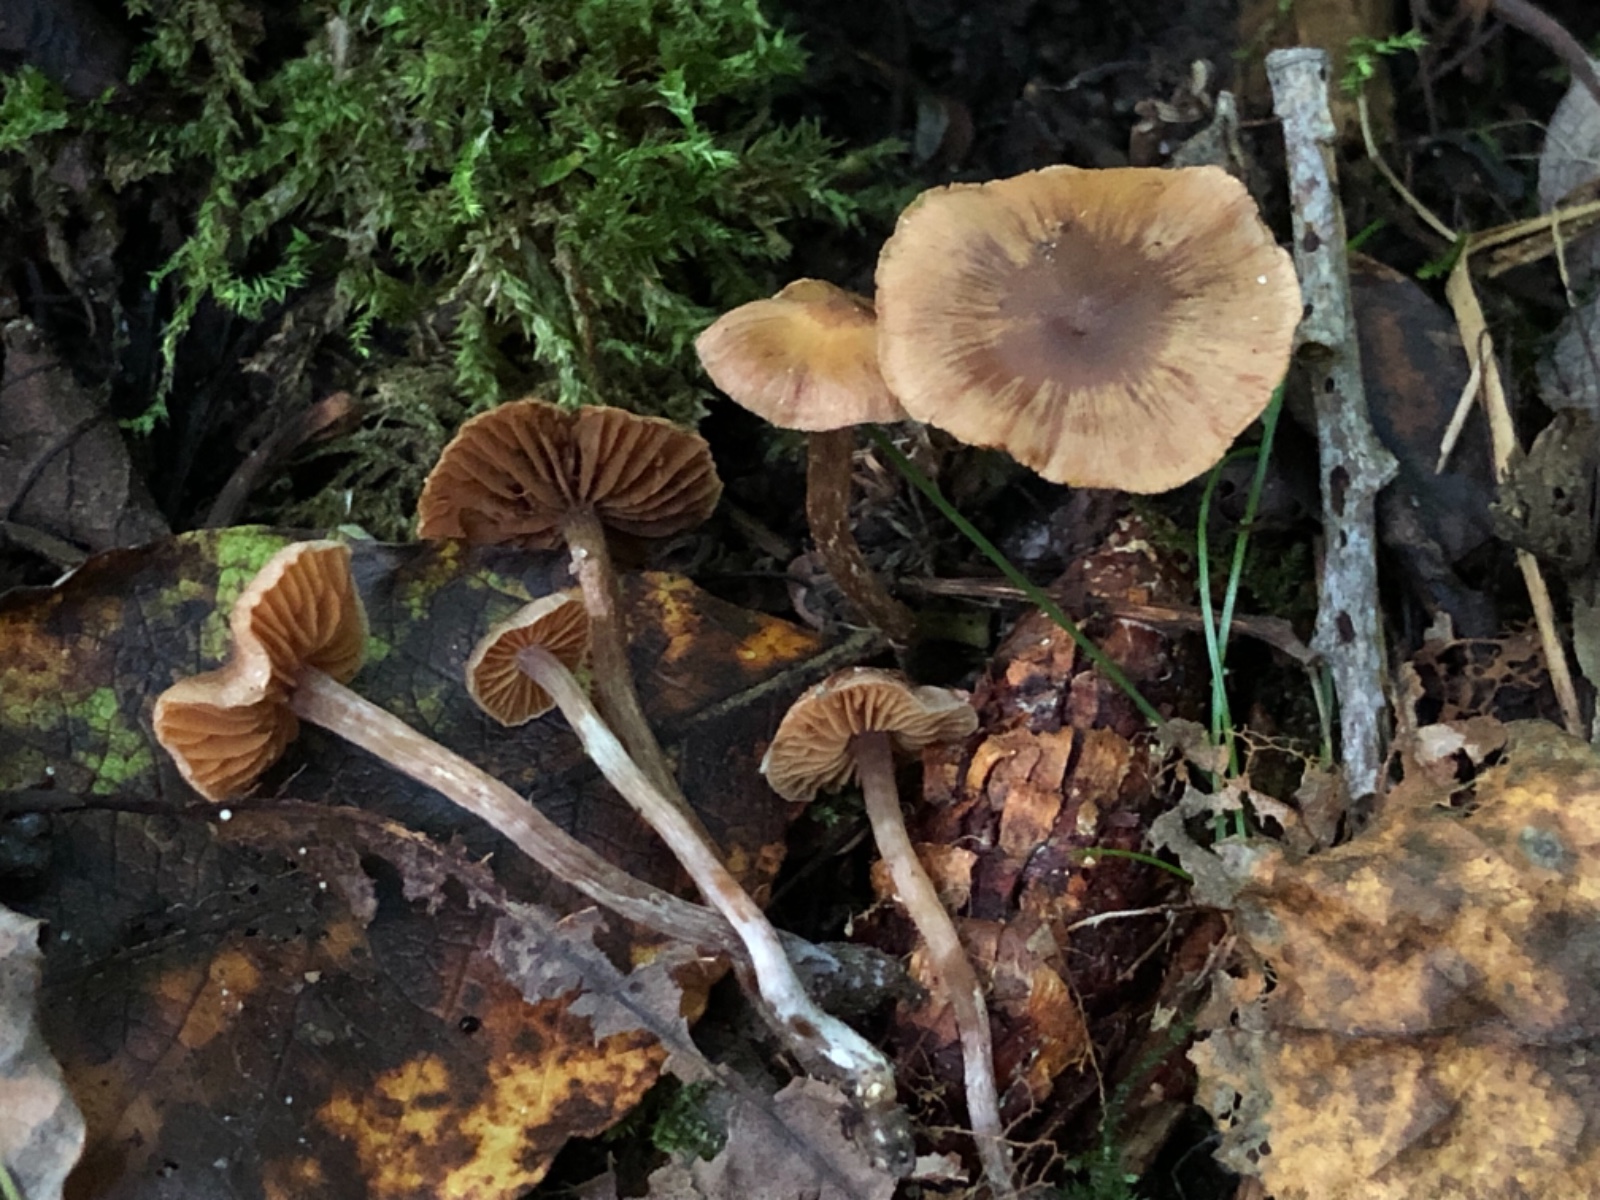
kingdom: Fungi
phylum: Basidiomycota
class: Agaricomycetes
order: Agaricales
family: Cortinariaceae
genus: Cortinarius
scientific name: Cortinarius pseudofallax
